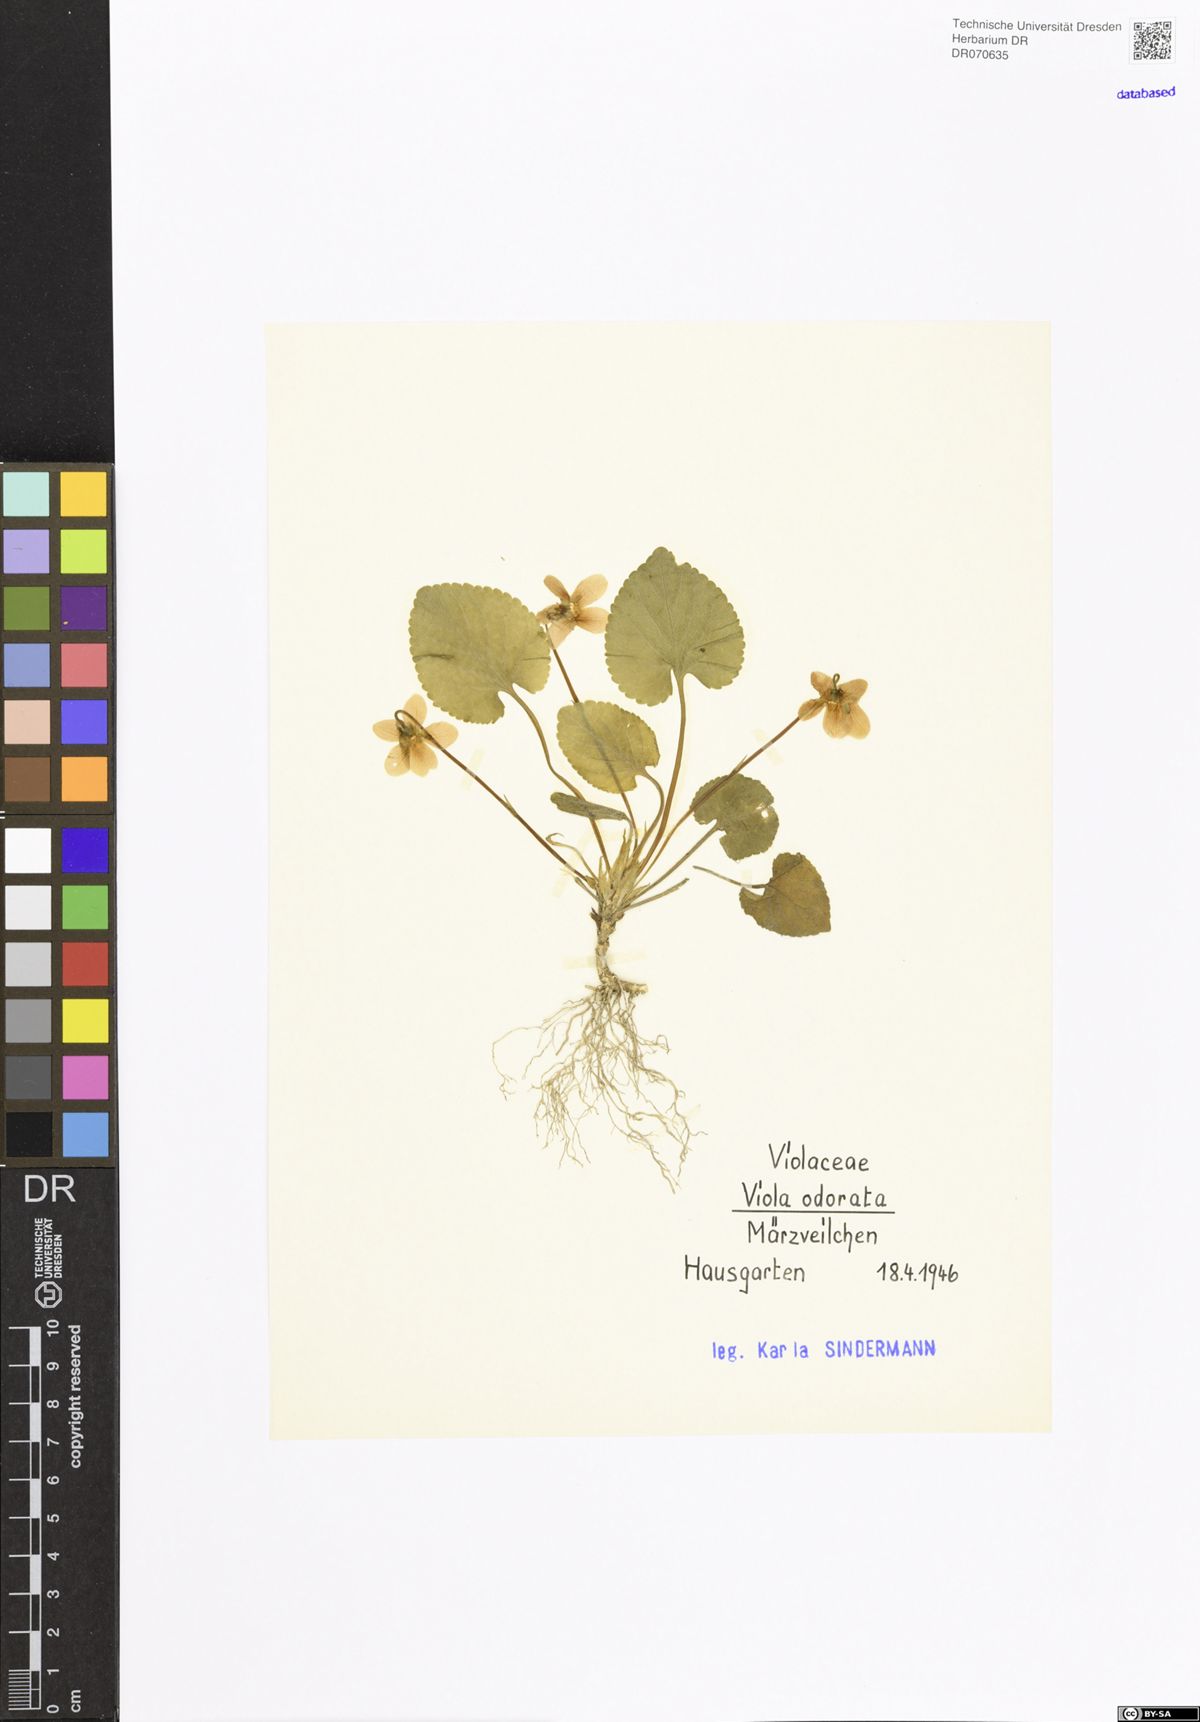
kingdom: Plantae
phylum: Tracheophyta
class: Magnoliopsida
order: Malpighiales
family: Violaceae
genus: Viola
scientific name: Viola odorata
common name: Sweet violet
